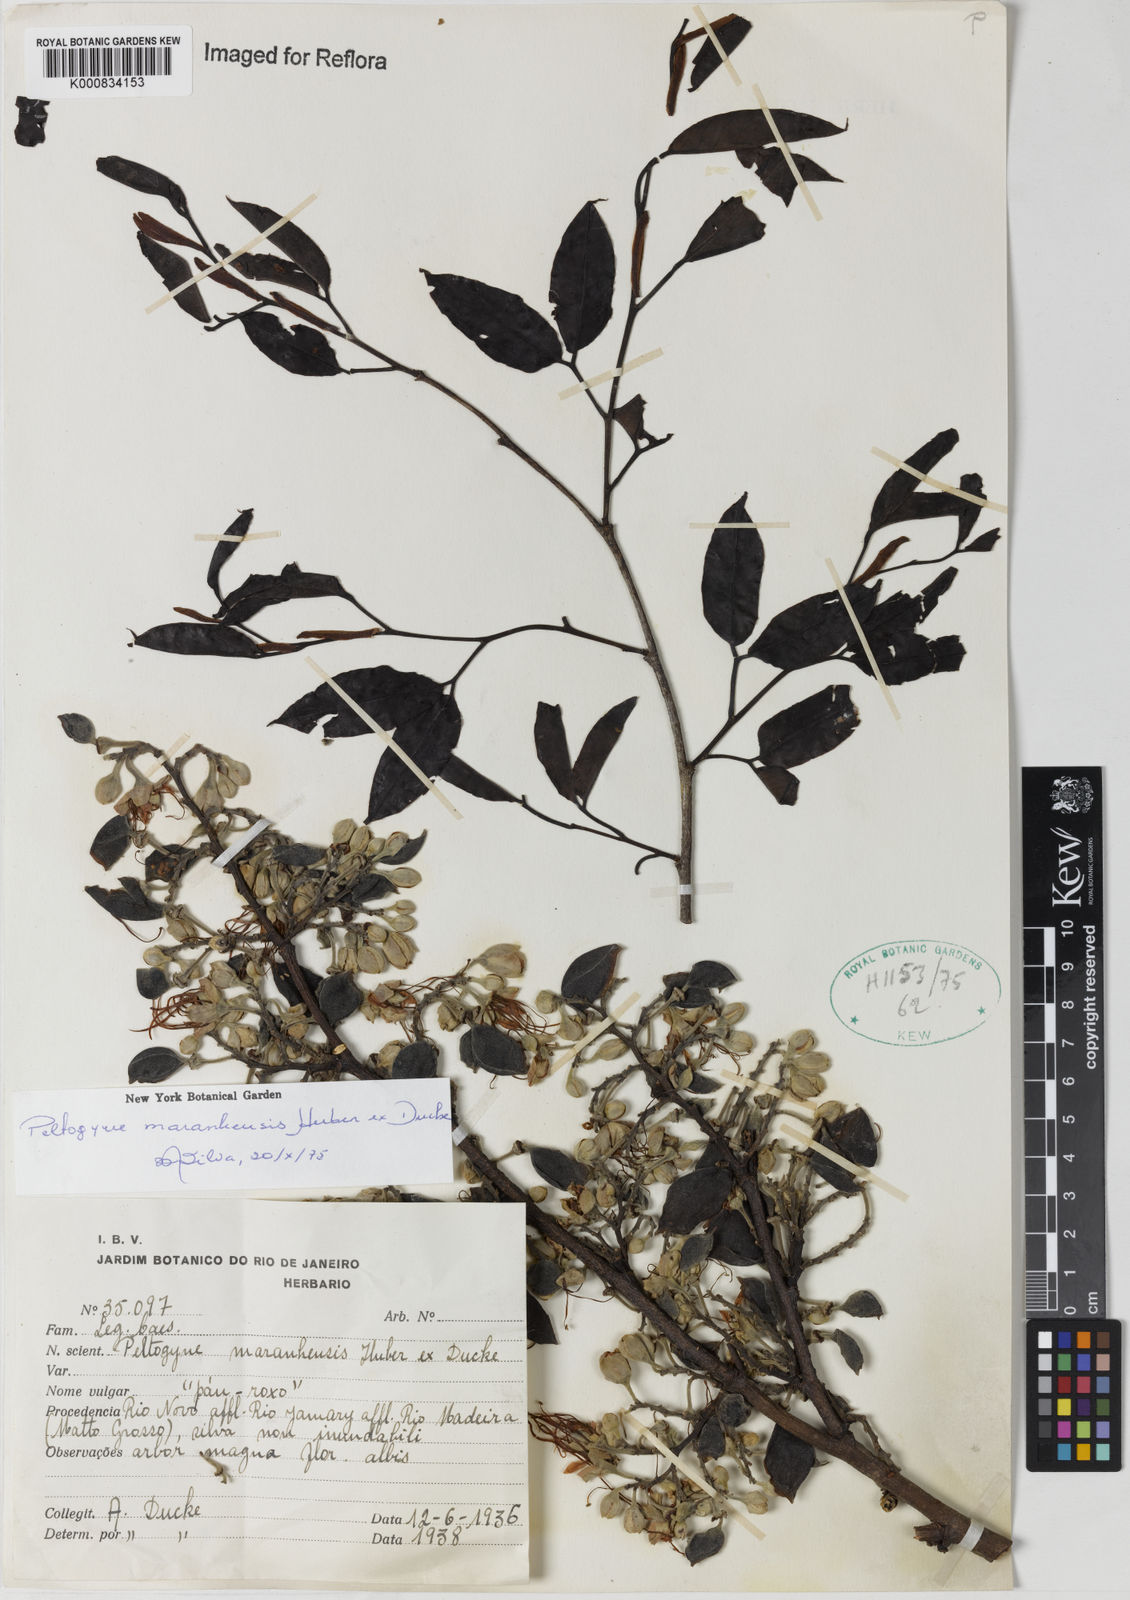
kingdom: Plantae
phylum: Tracheophyta
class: Magnoliopsida
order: Fabales
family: Fabaceae
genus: Peltogyne
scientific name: Peltogyne maranhensis
